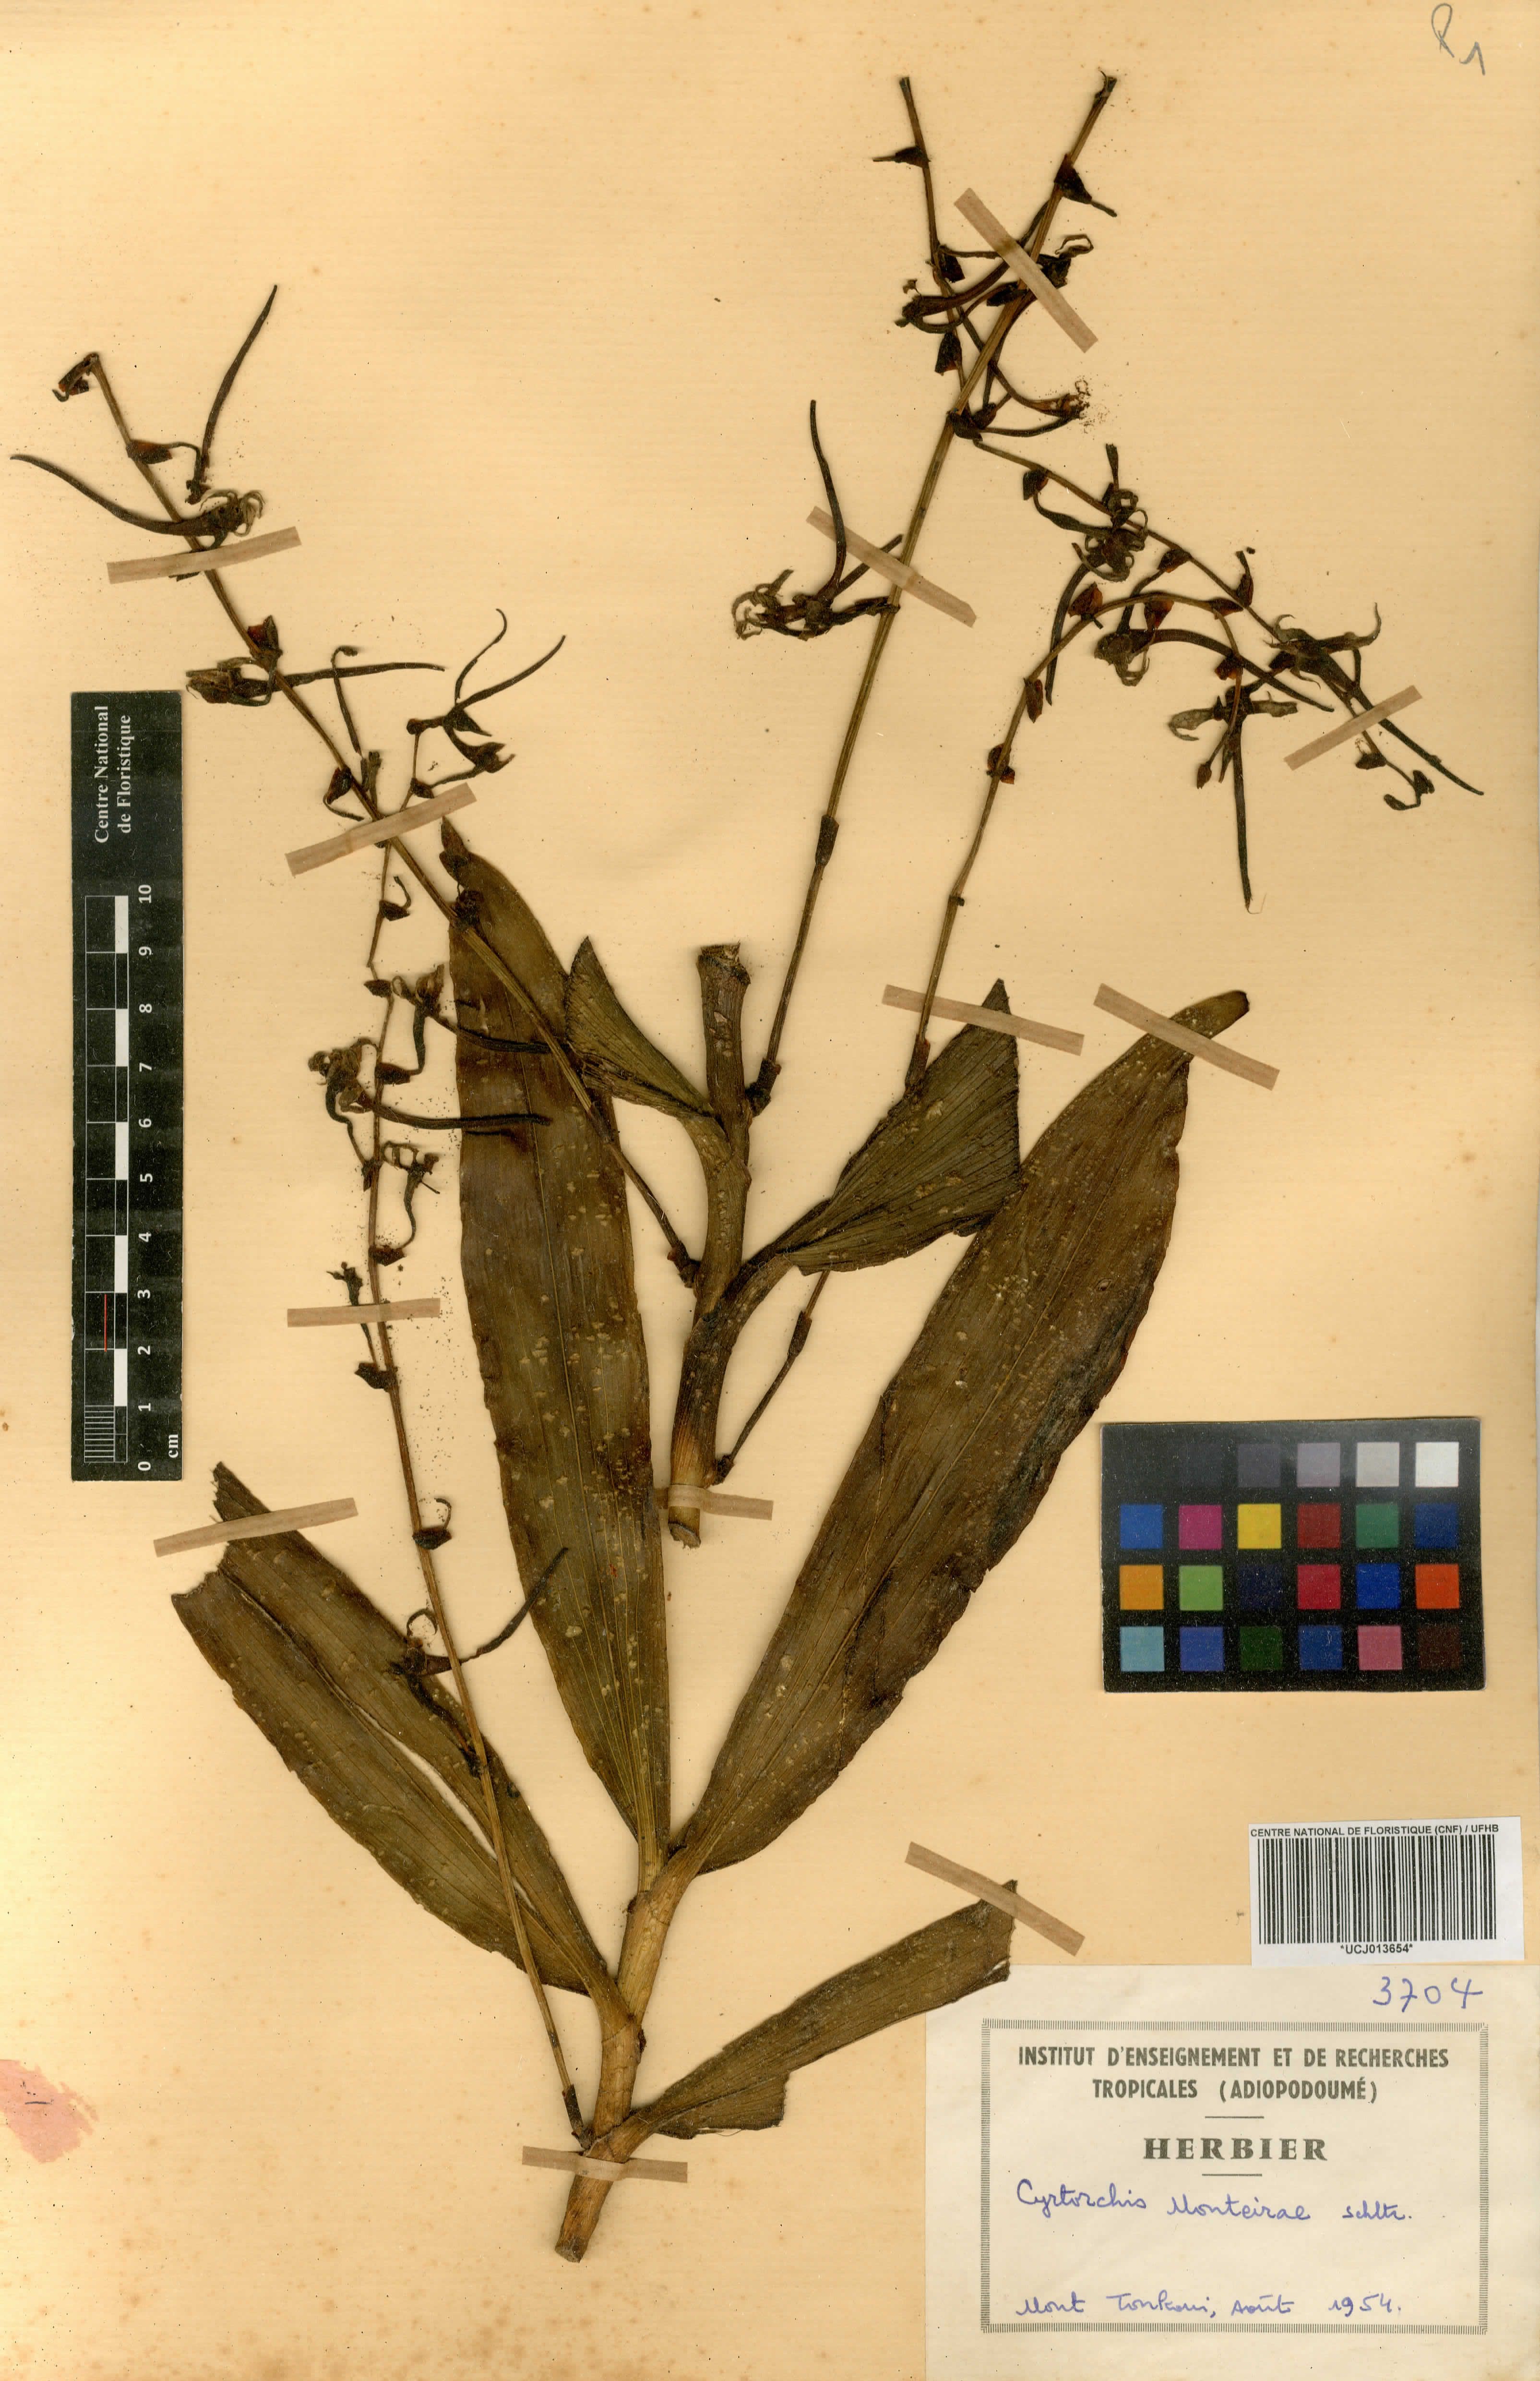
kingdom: Plantae
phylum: Tracheophyta
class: Liliopsida
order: Asparagales
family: Orchidaceae
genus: Cyrtorchis
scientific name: Cyrtorchis monteiroae
